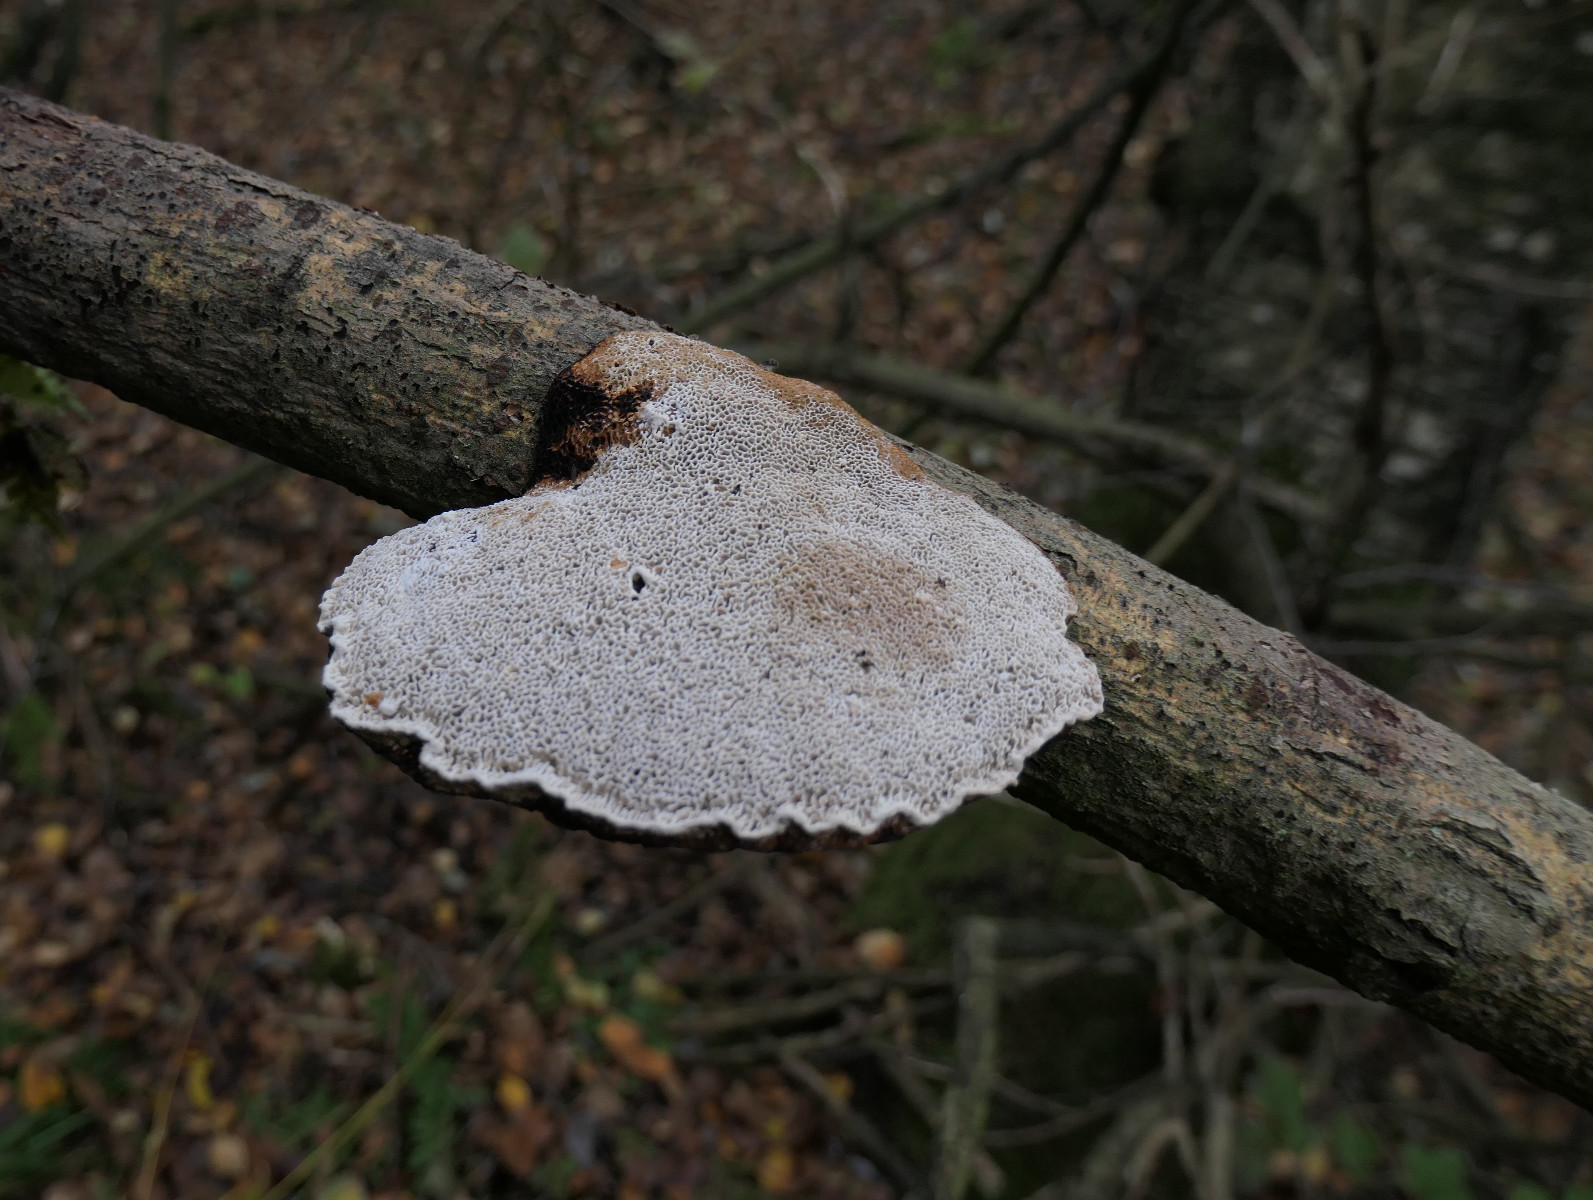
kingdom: Fungi
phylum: Basidiomycota
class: Agaricomycetes
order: Polyporales
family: Polyporaceae
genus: Daedaleopsis
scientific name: Daedaleopsis confragosa
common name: rødmende læderporesvamp
